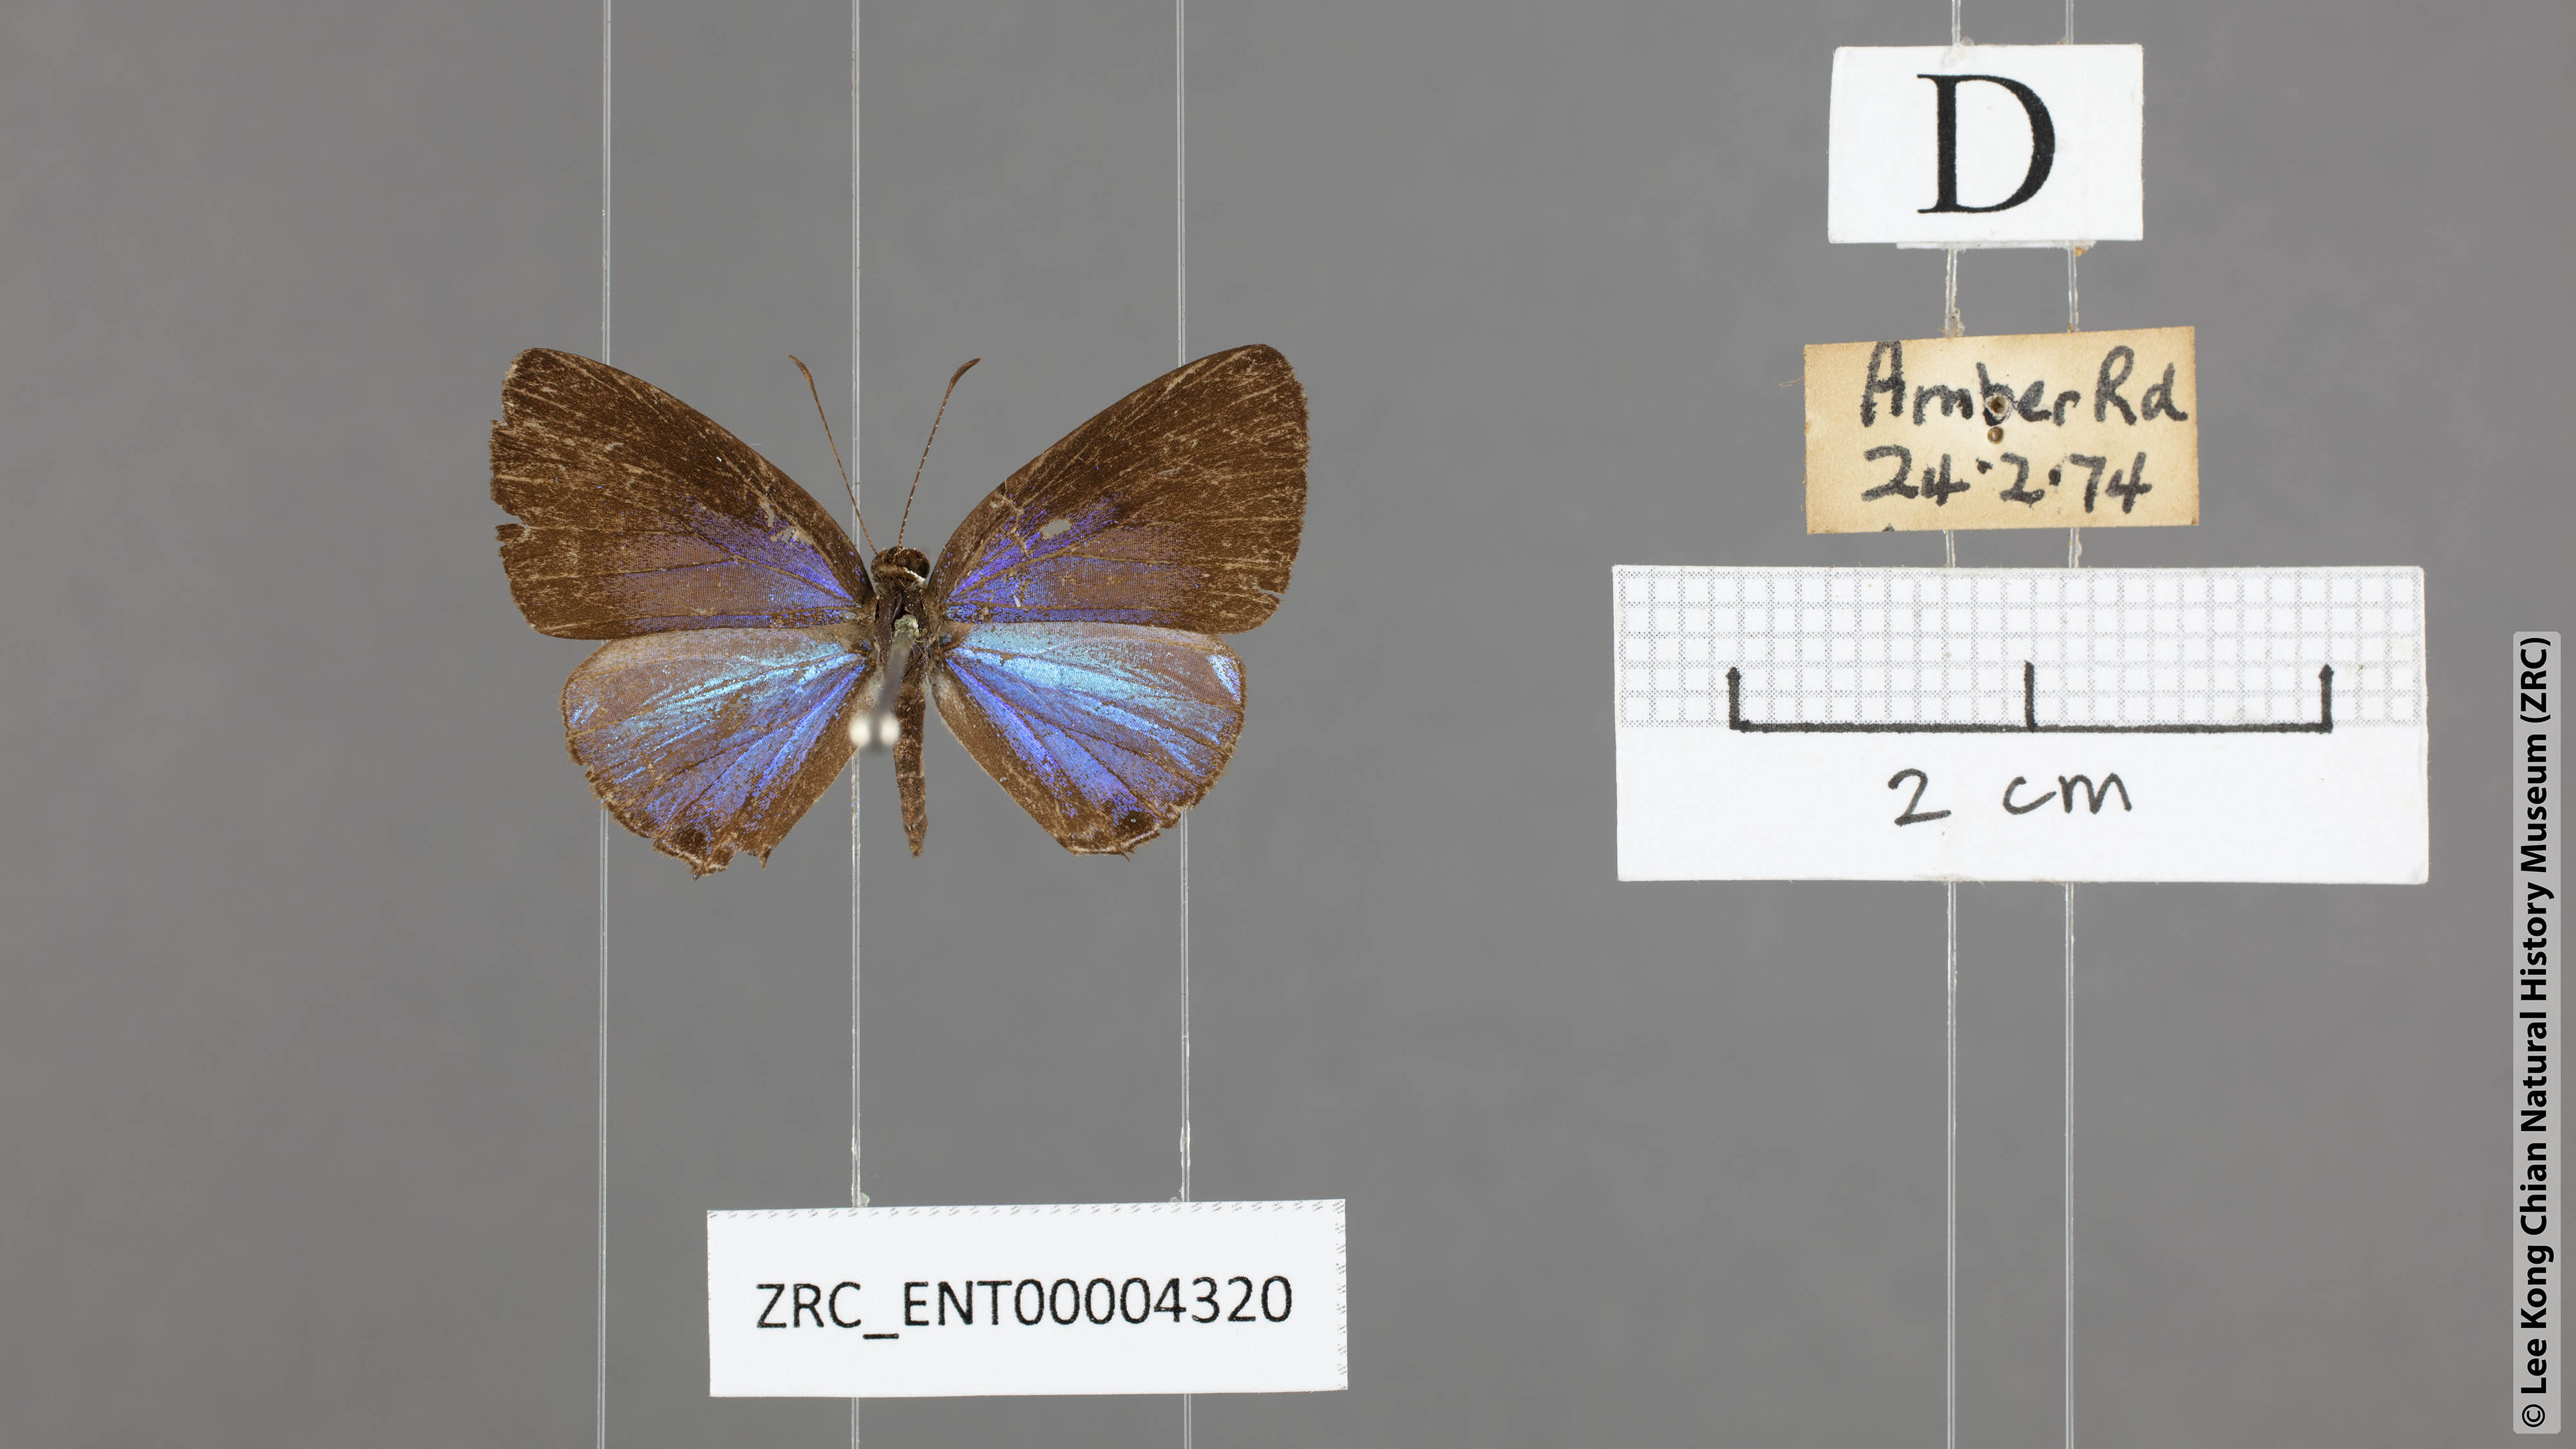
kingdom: Animalia
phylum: Arthropoda
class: Insecta
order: Lepidoptera
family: Lycaenidae
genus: Jamides
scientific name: Jamides bochus
